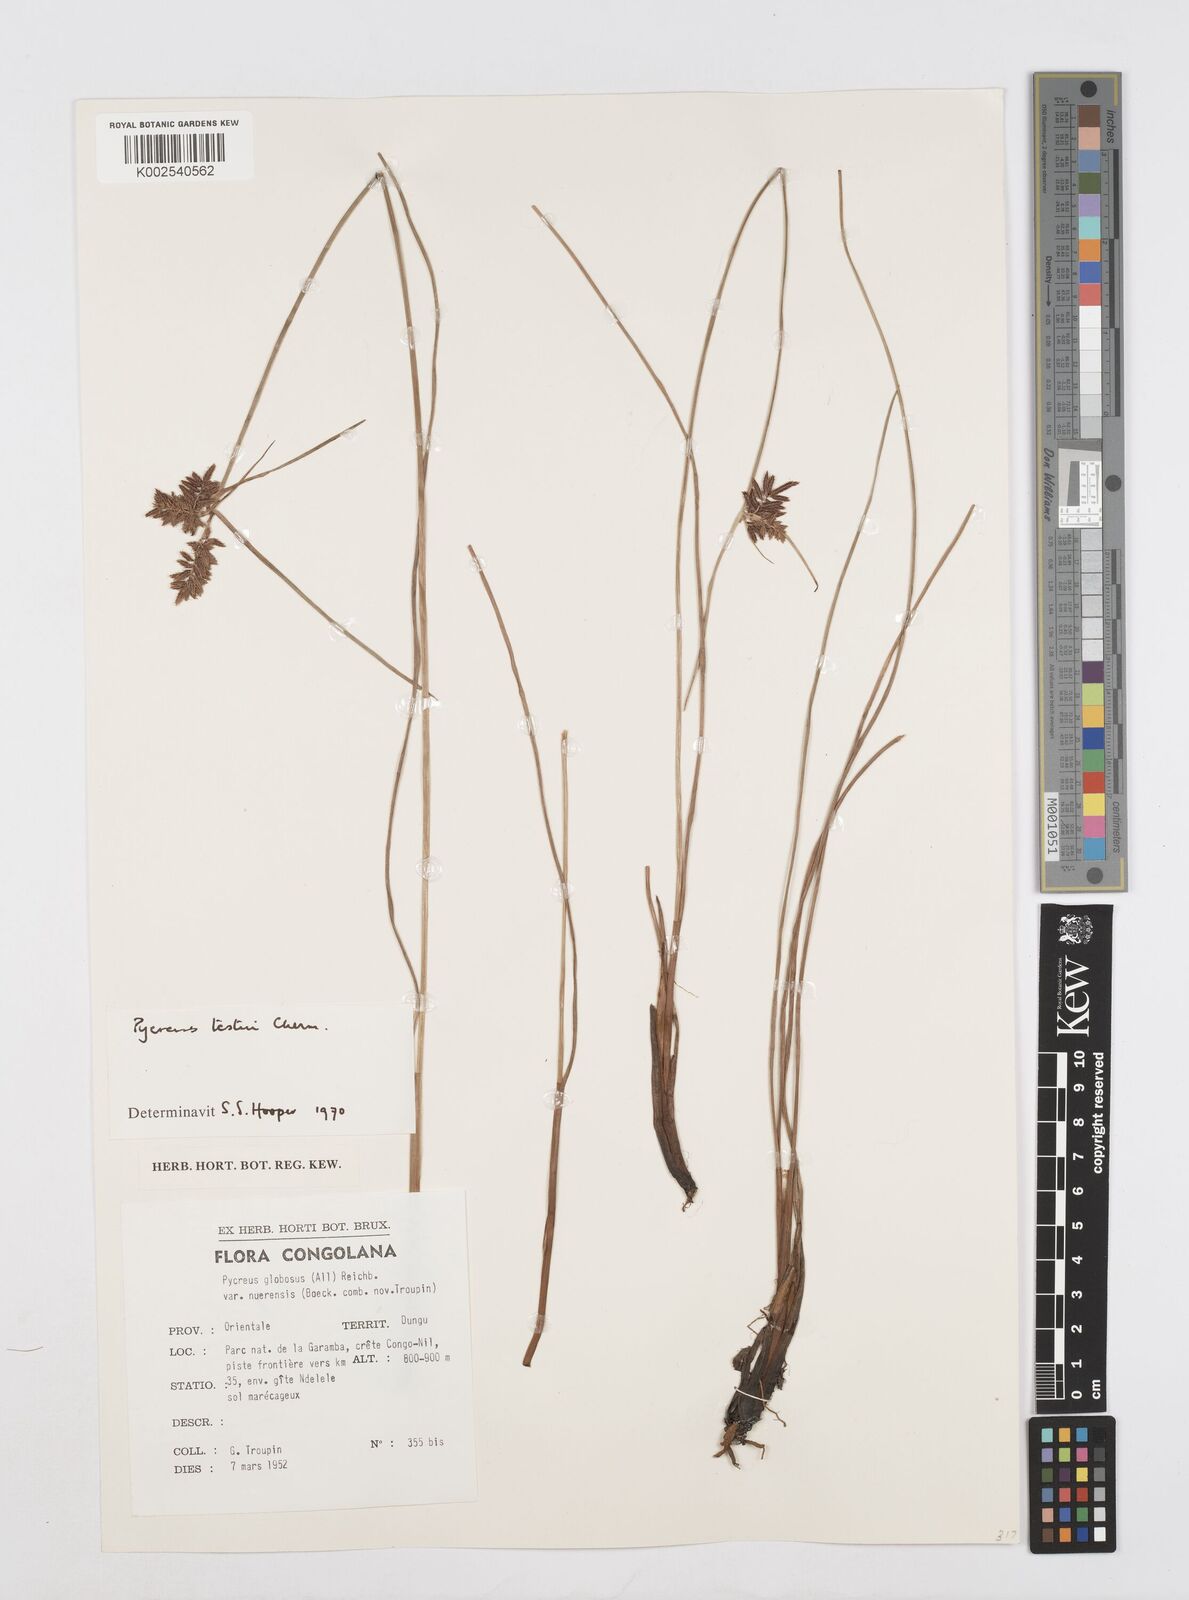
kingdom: Plantae
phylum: Tracheophyta
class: Liliopsida
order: Poales
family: Cyperaceae
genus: Cyperus
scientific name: Cyperus aethiops
